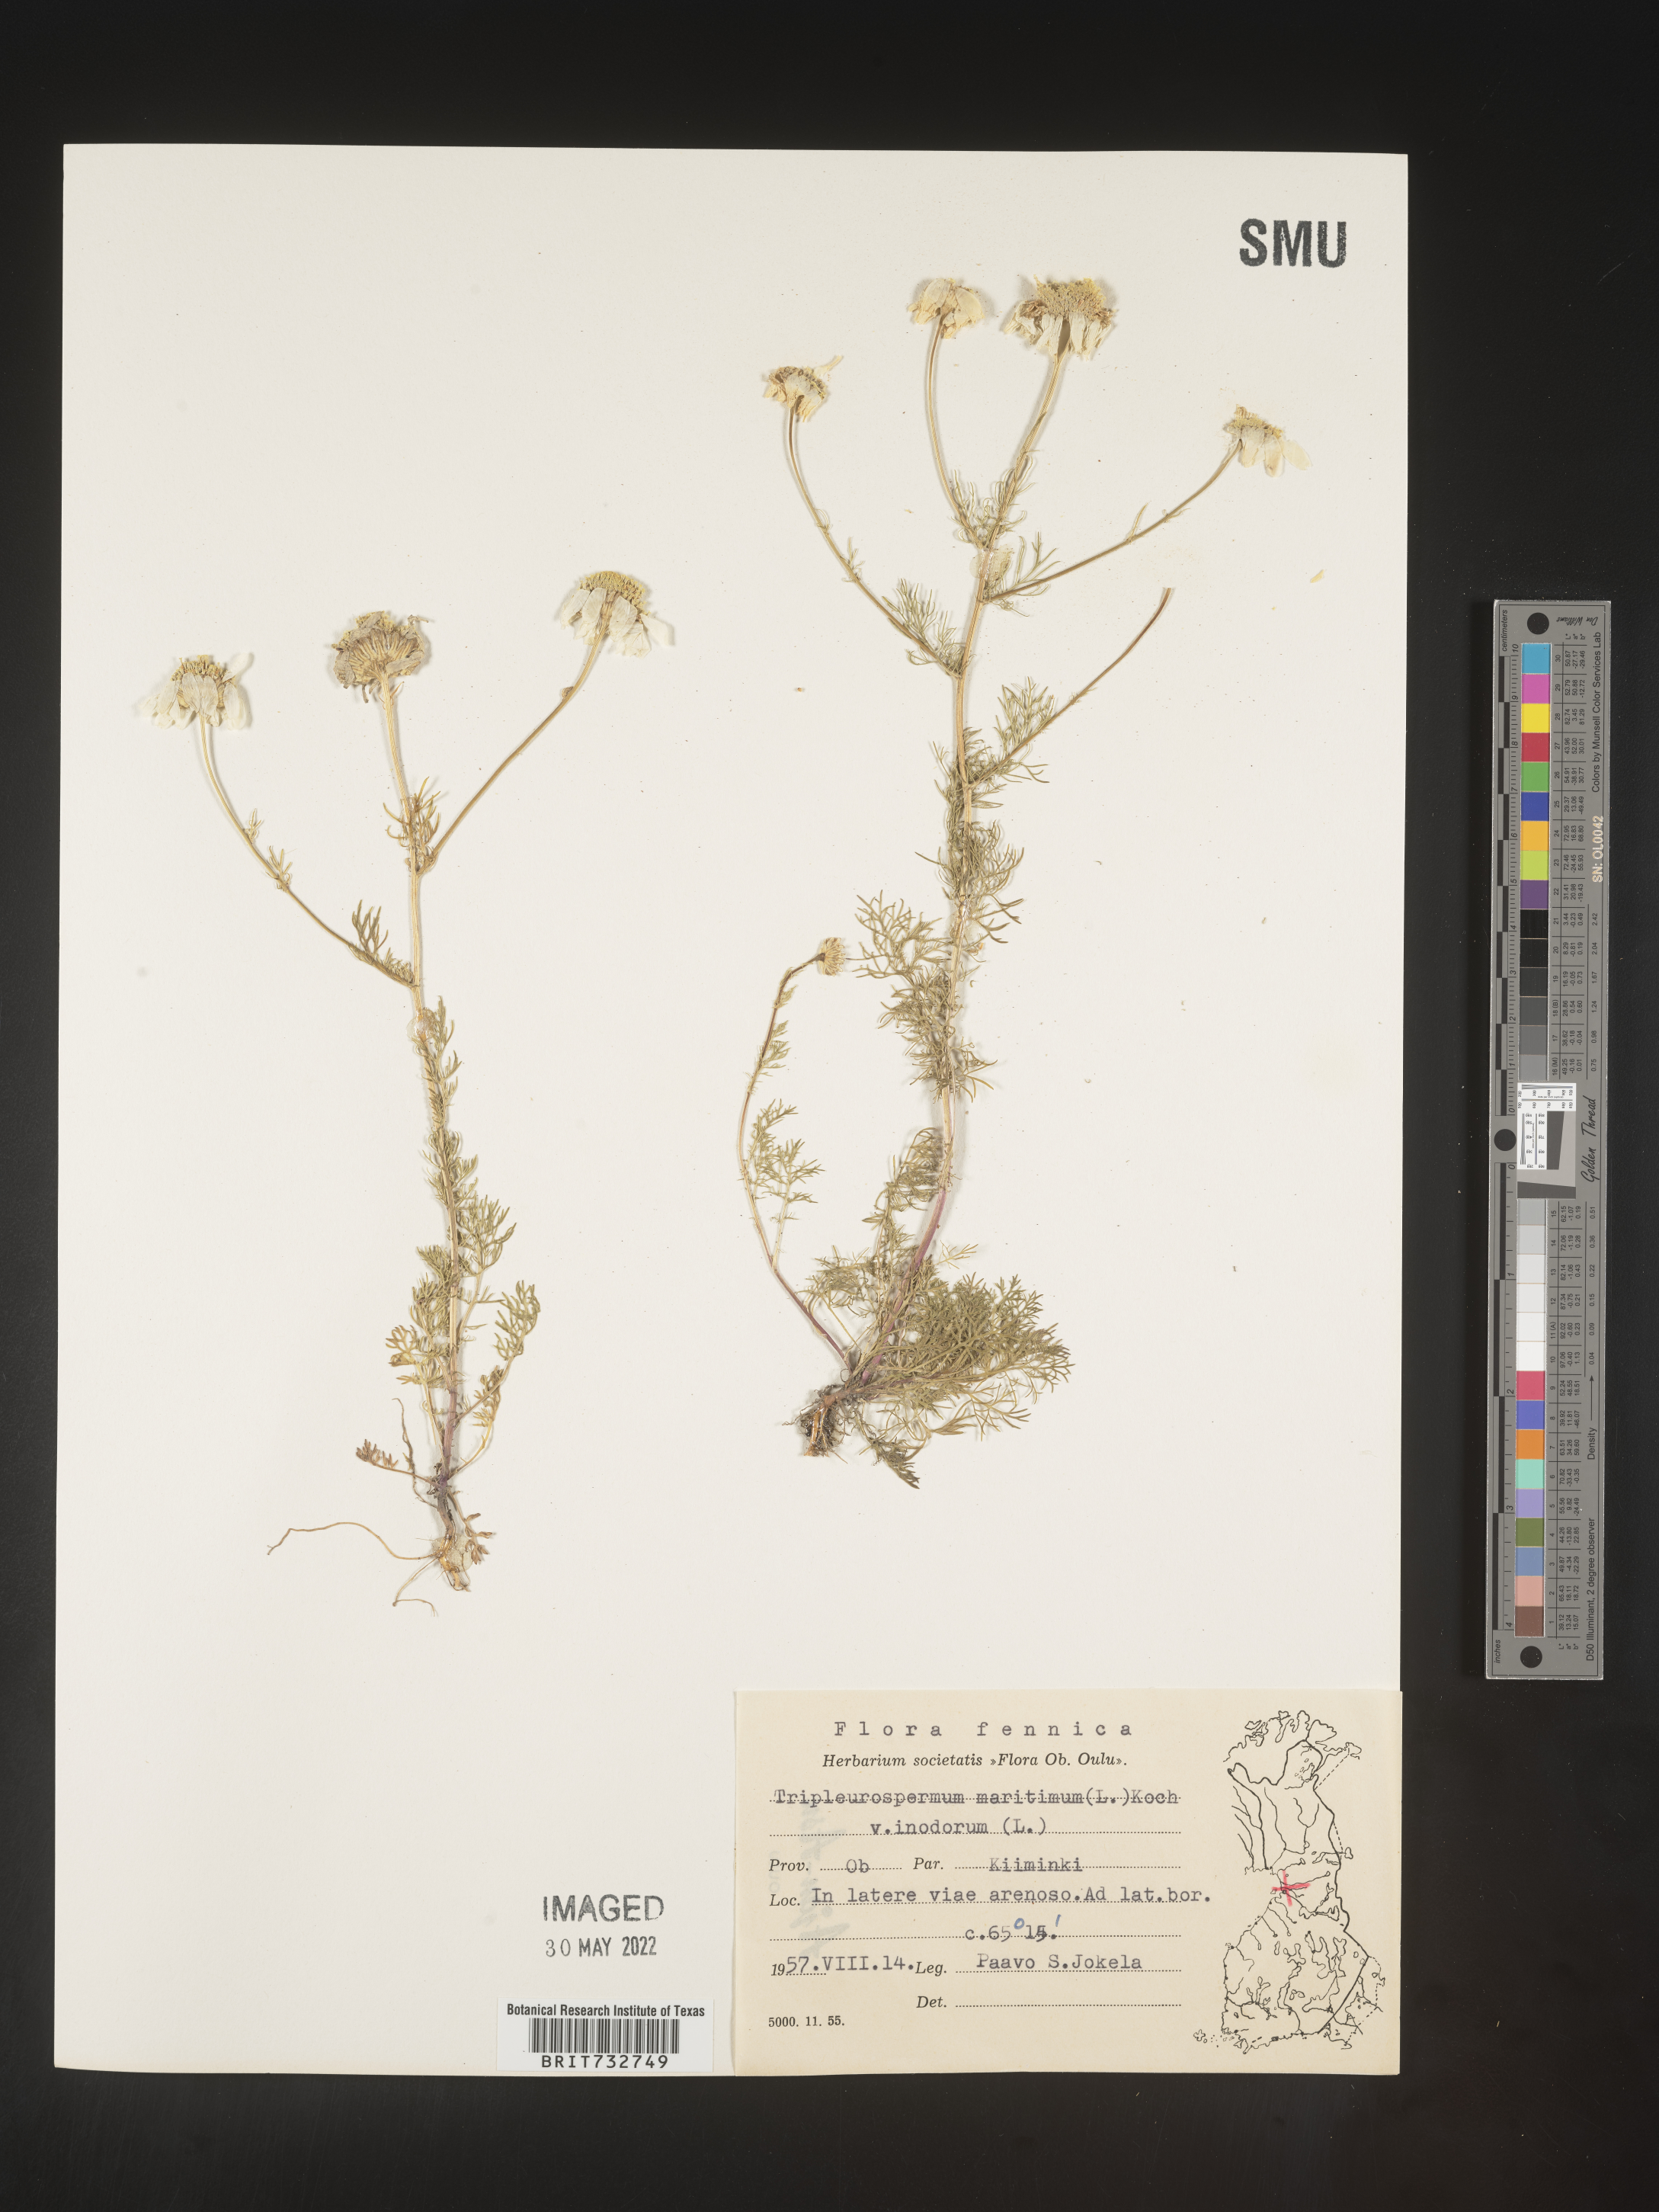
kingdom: Plantae
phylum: Tracheophyta
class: Magnoliopsida
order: Asterales
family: Asteraceae
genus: Matricaria
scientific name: Matricaria
